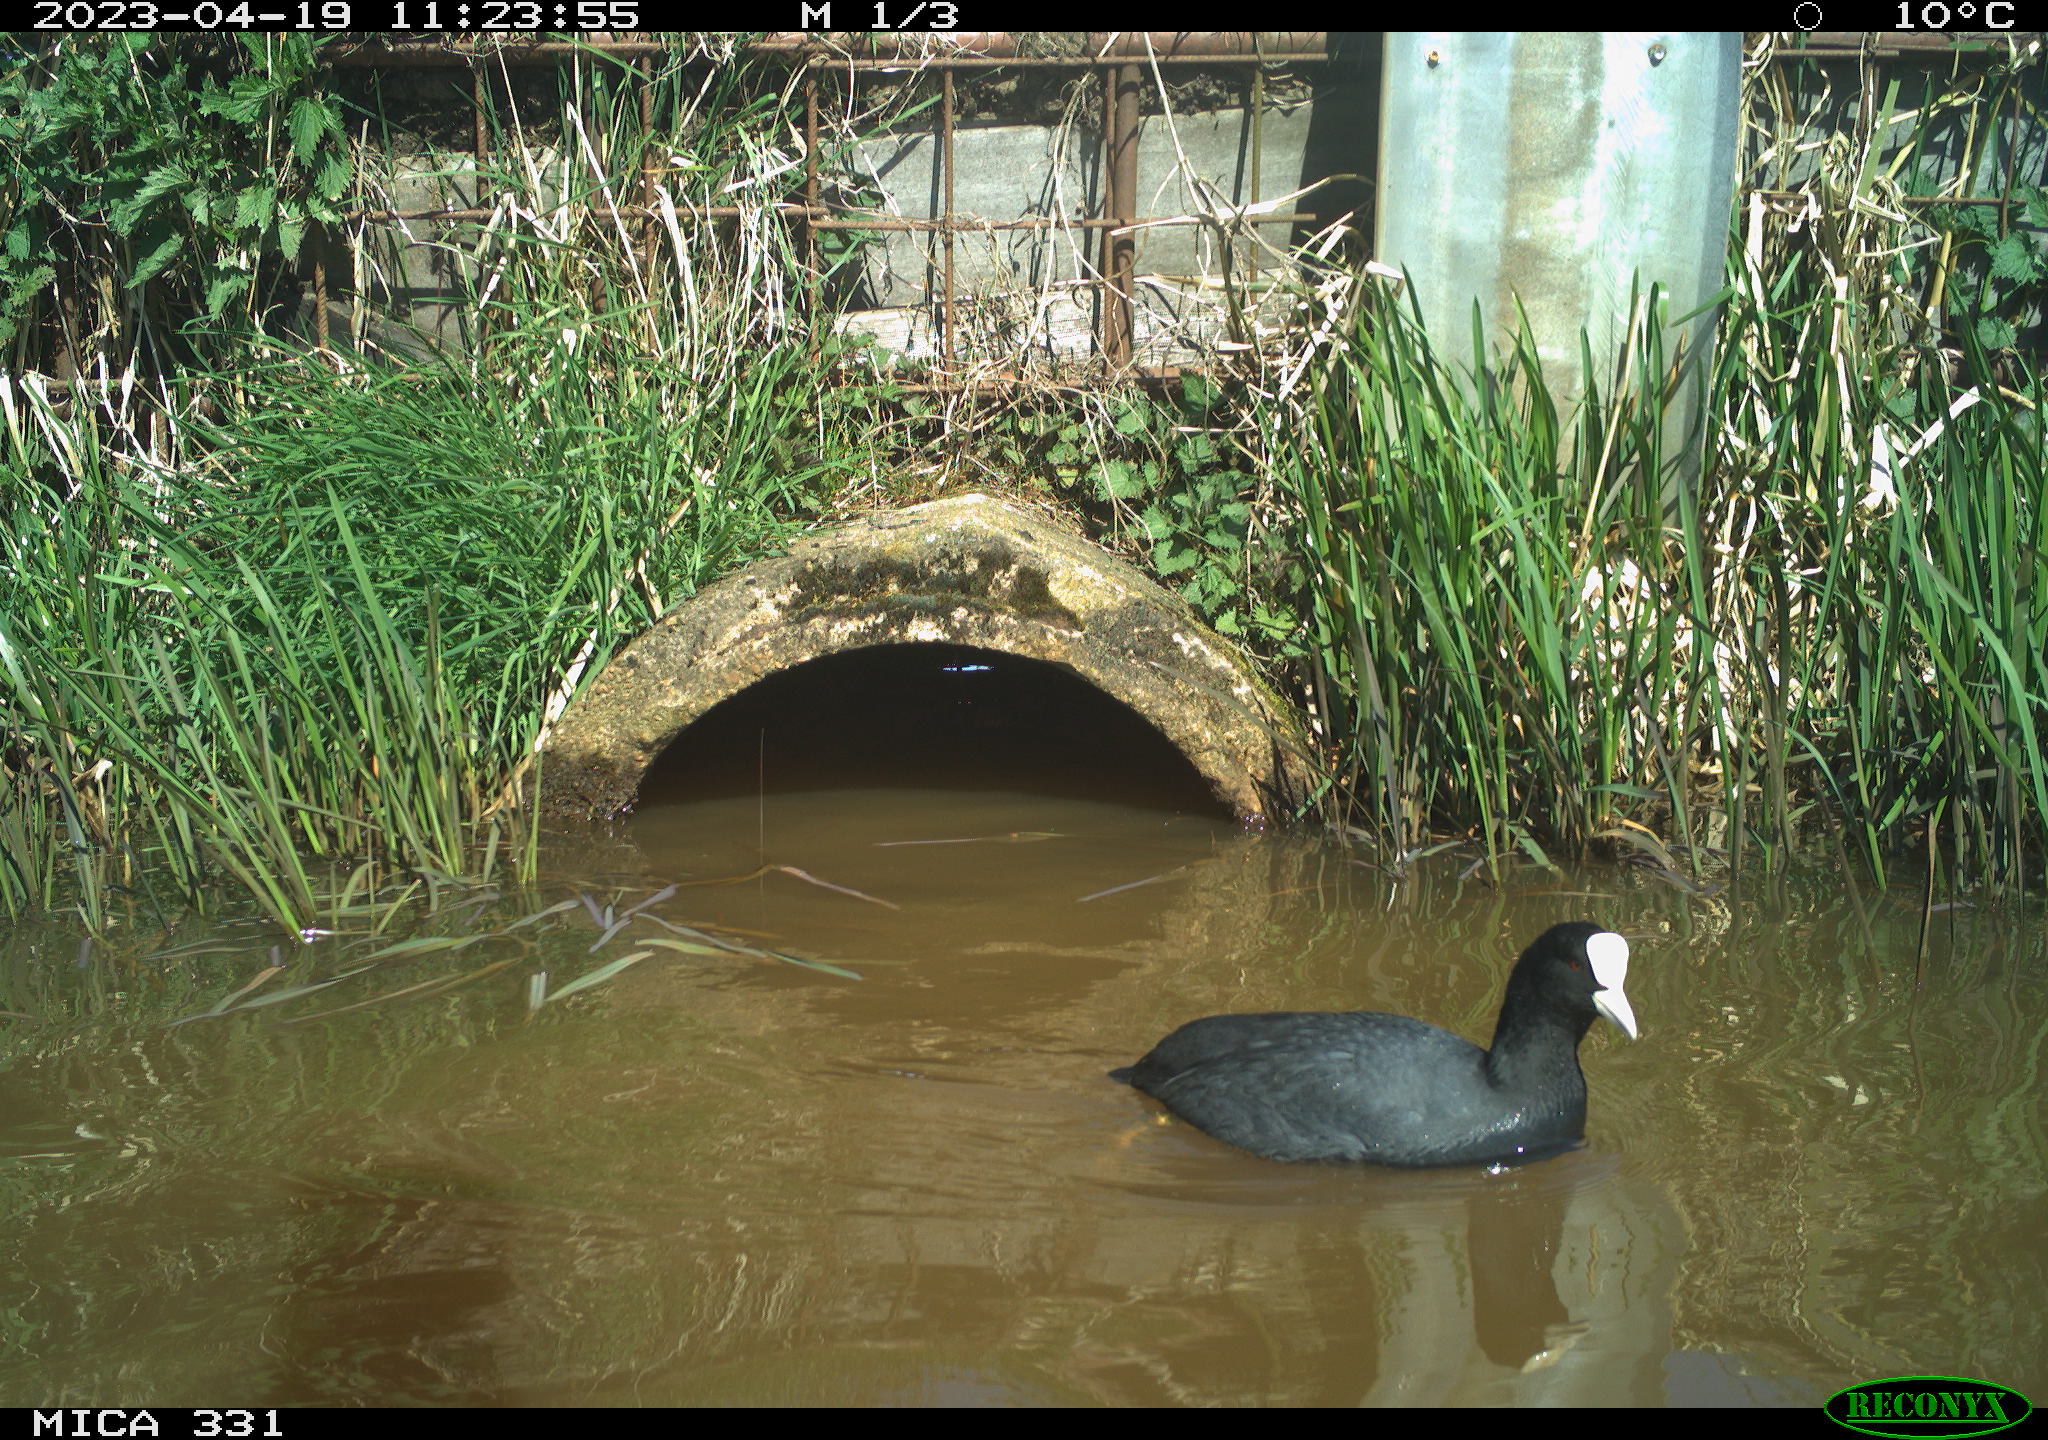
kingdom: Animalia
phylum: Chordata
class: Aves
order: Gruiformes
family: Rallidae
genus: Fulica
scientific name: Fulica atra
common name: Eurasian coot
